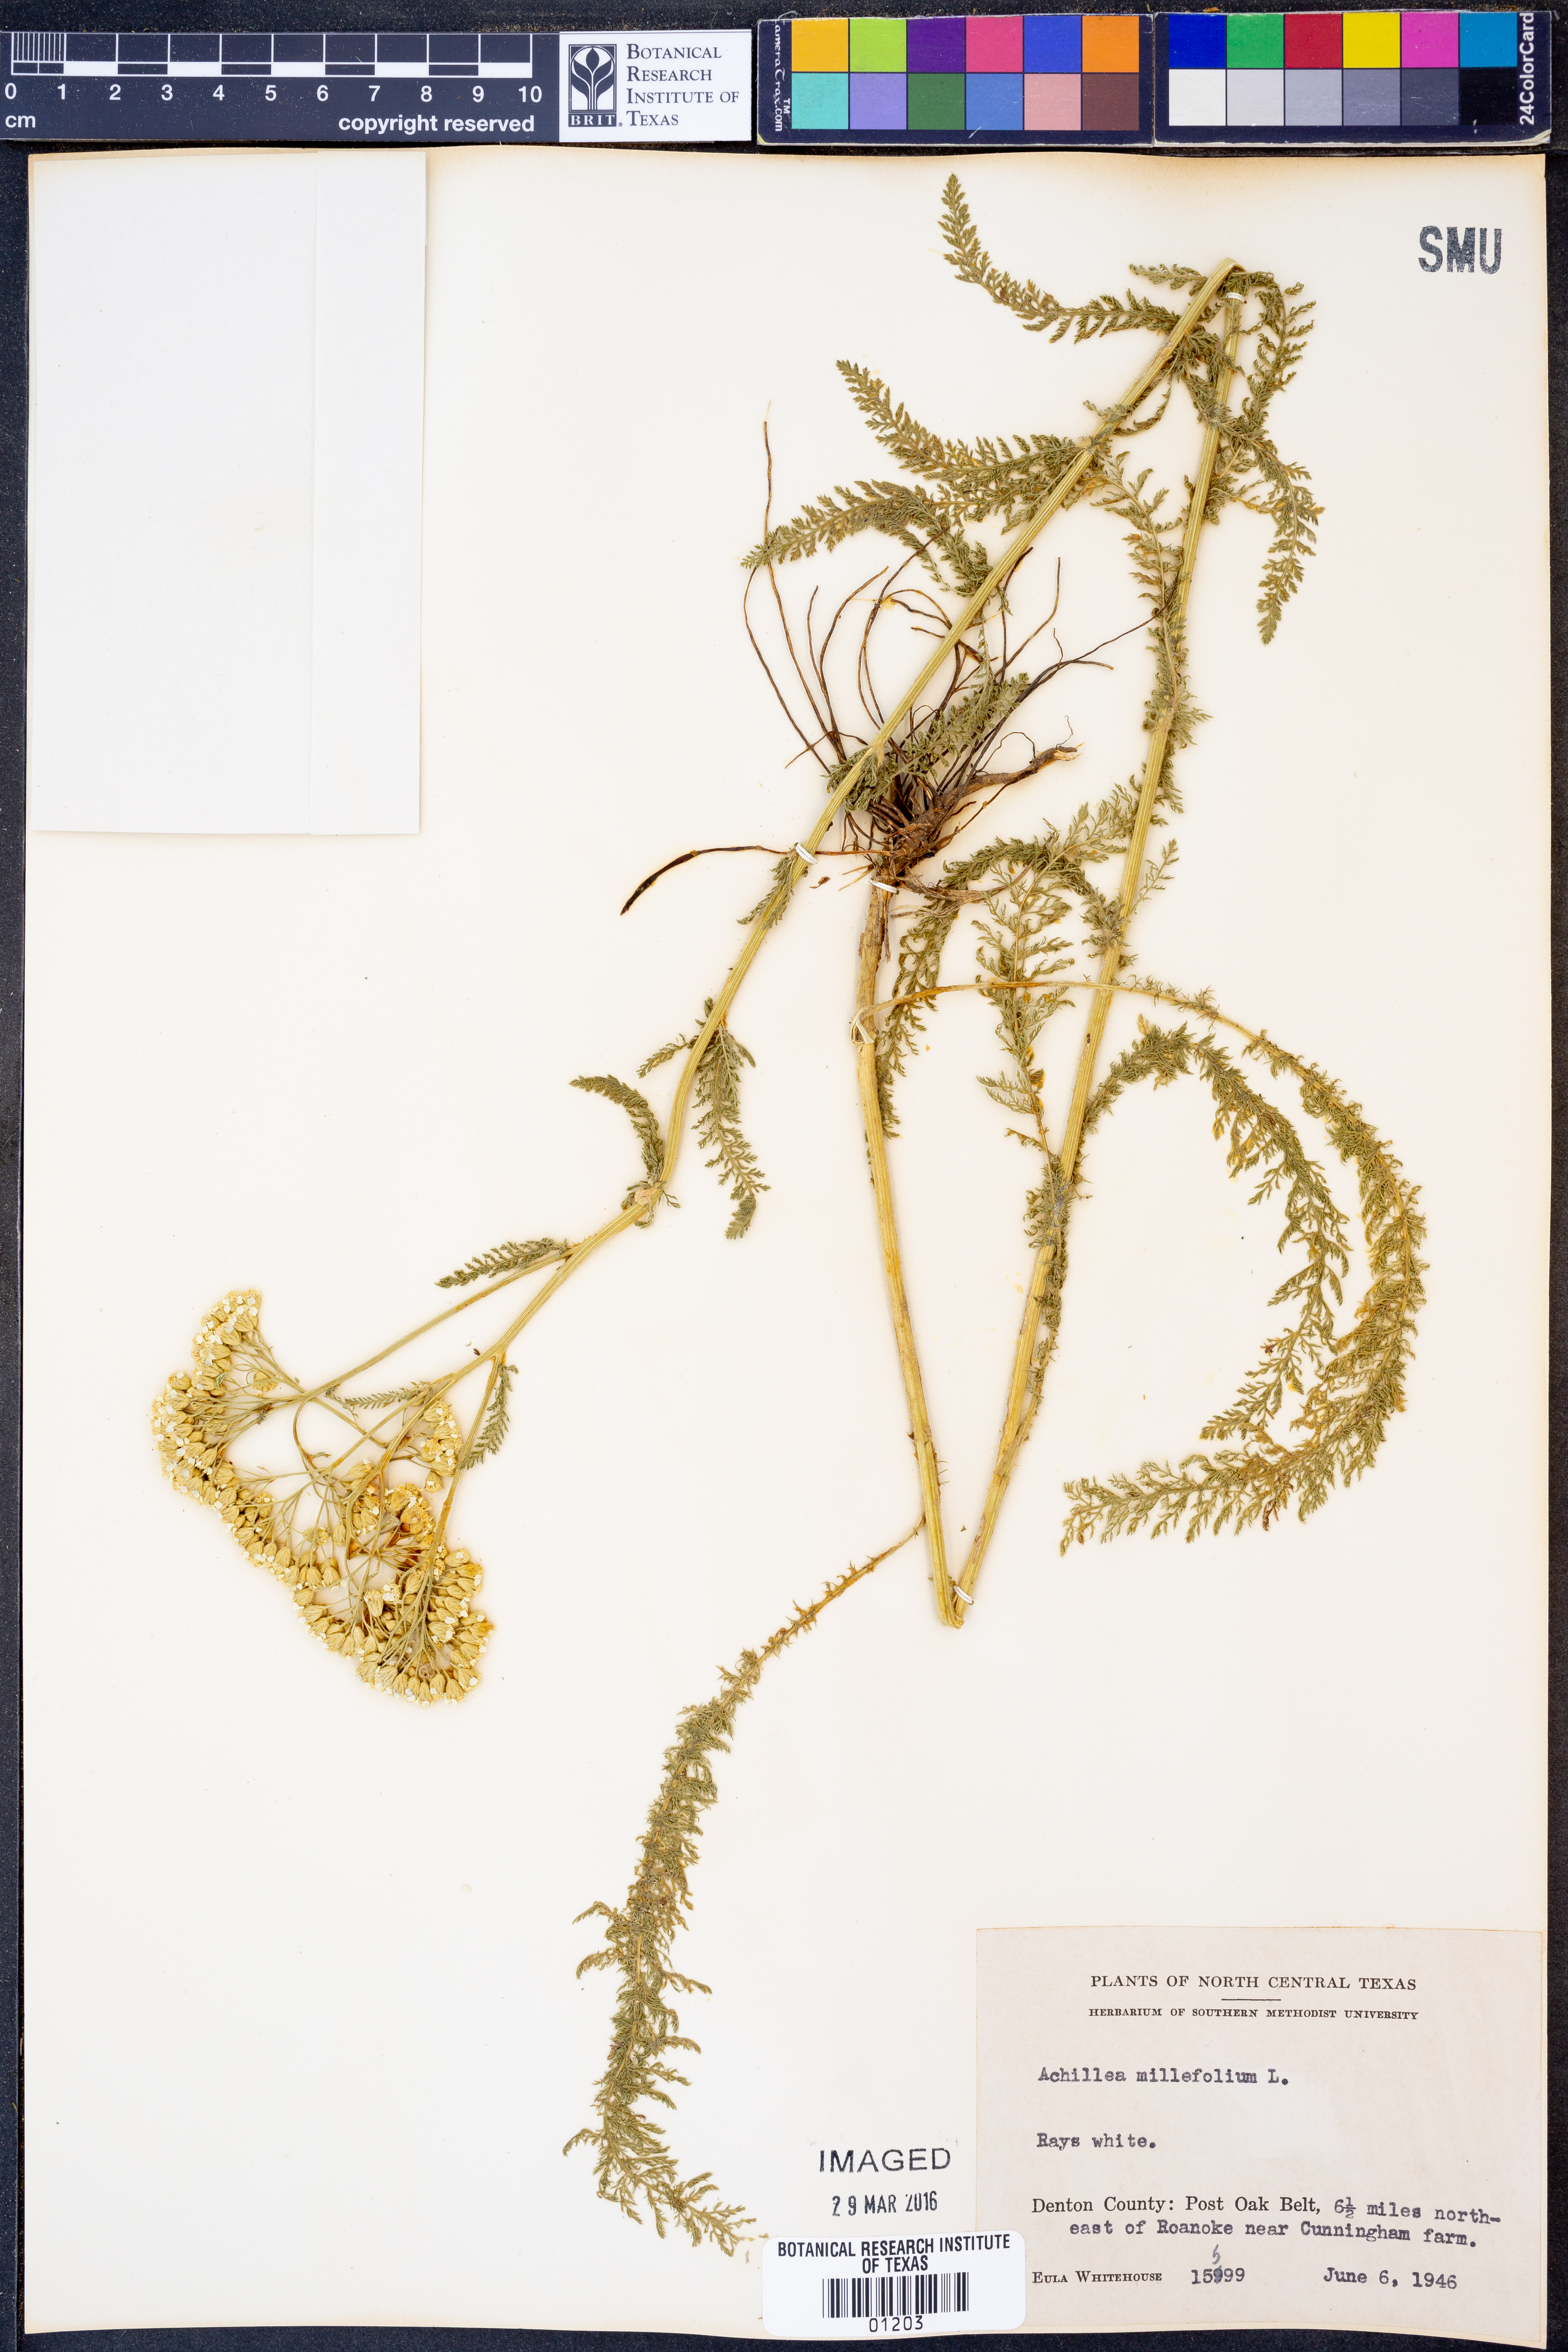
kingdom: Plantae
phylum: Tracheophyta
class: Magnoliopsida
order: Asterales
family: Asteraceae
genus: Achillea
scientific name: Achillea millefolium
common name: Yarrow
